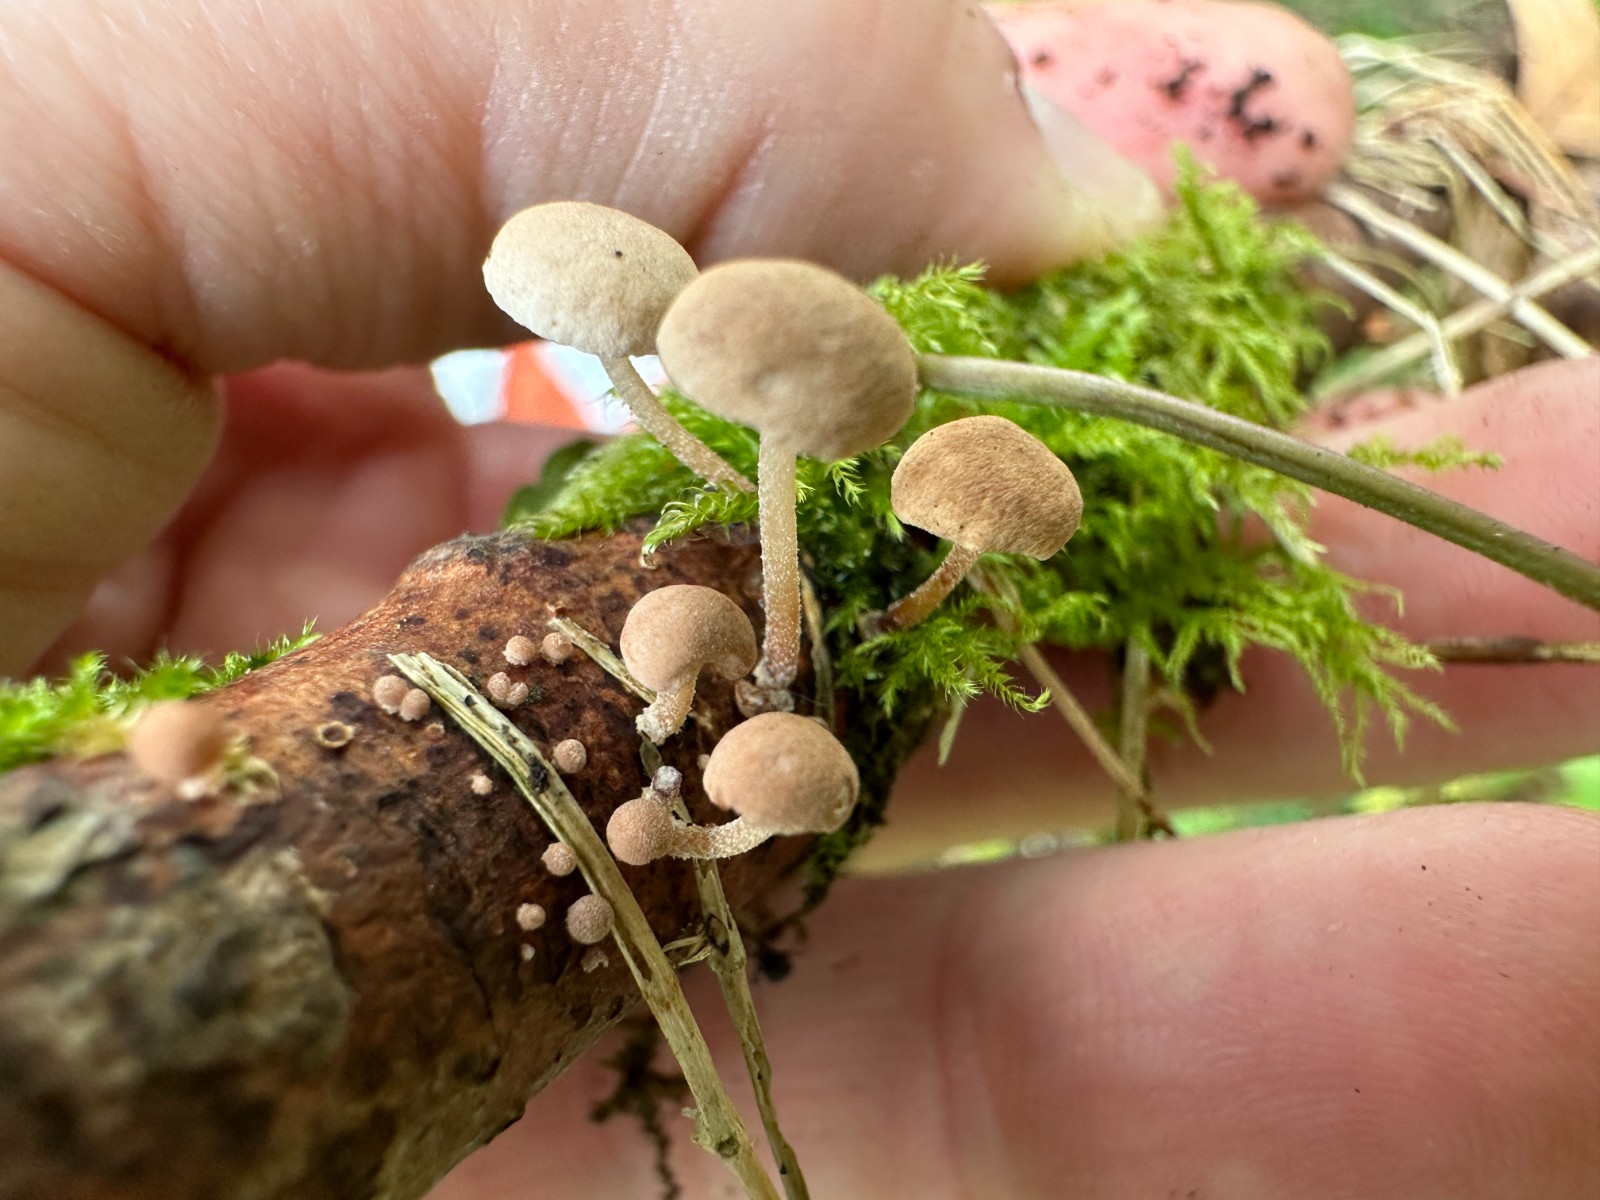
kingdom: Fungi
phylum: Basidiomycota
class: Agaricomycetes
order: Agaricales
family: Omphalotaceae
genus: Collybiopsis
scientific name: Collybiopsis ramealis
